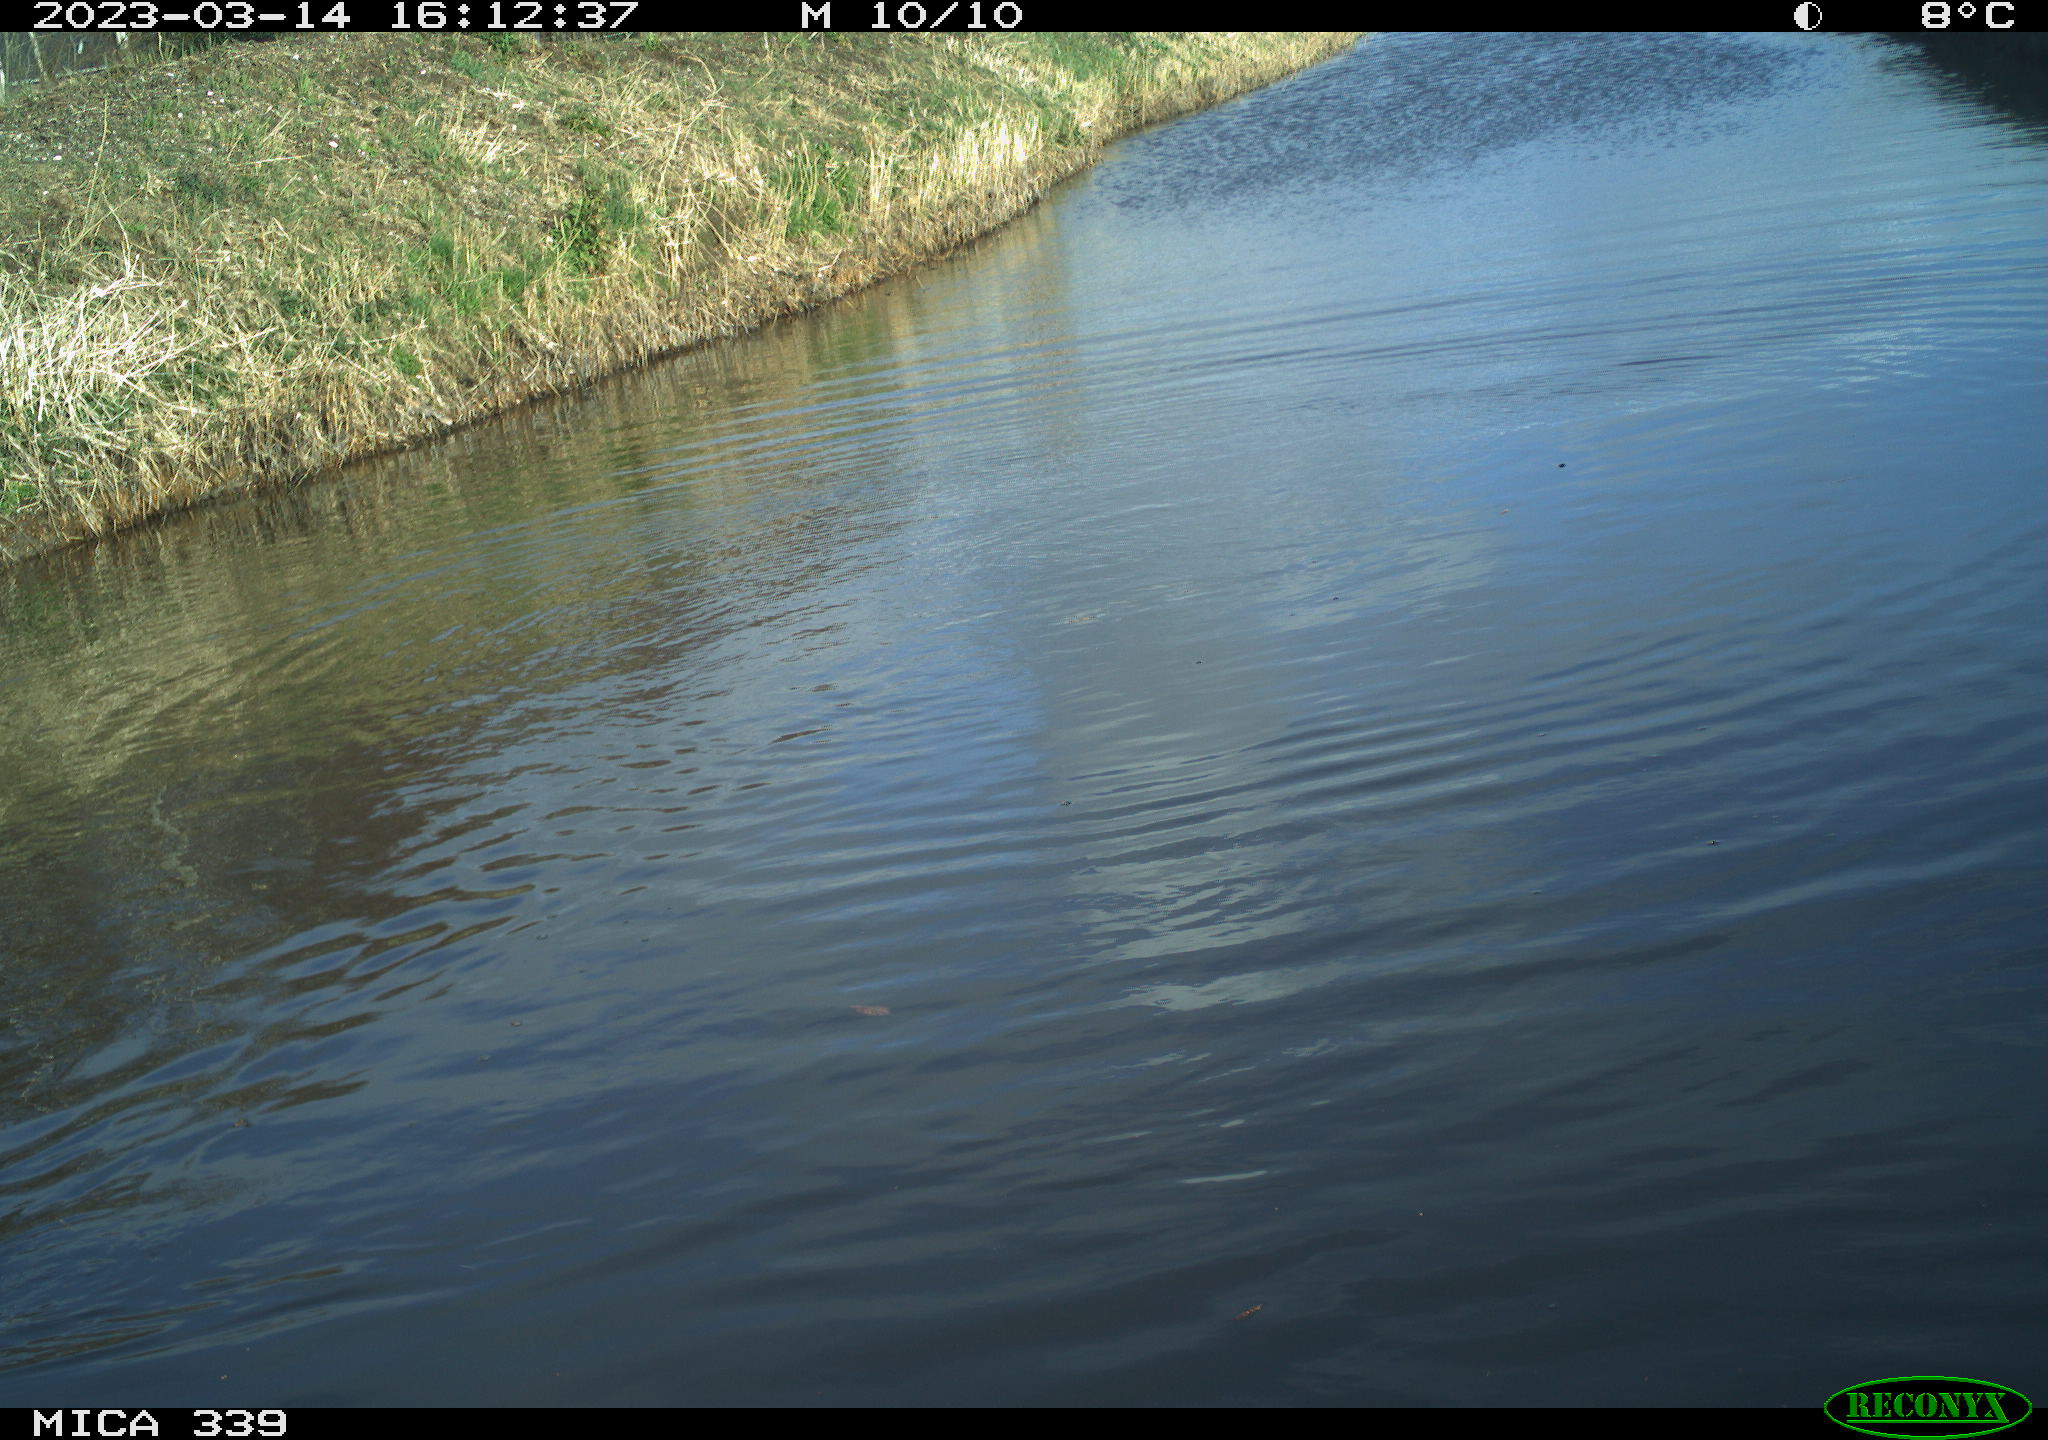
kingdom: Animalia
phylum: Chordata
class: Aves
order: Gruiformes
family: Rallidae
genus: Fulica
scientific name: Fulica atra
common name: Eurasian coot
